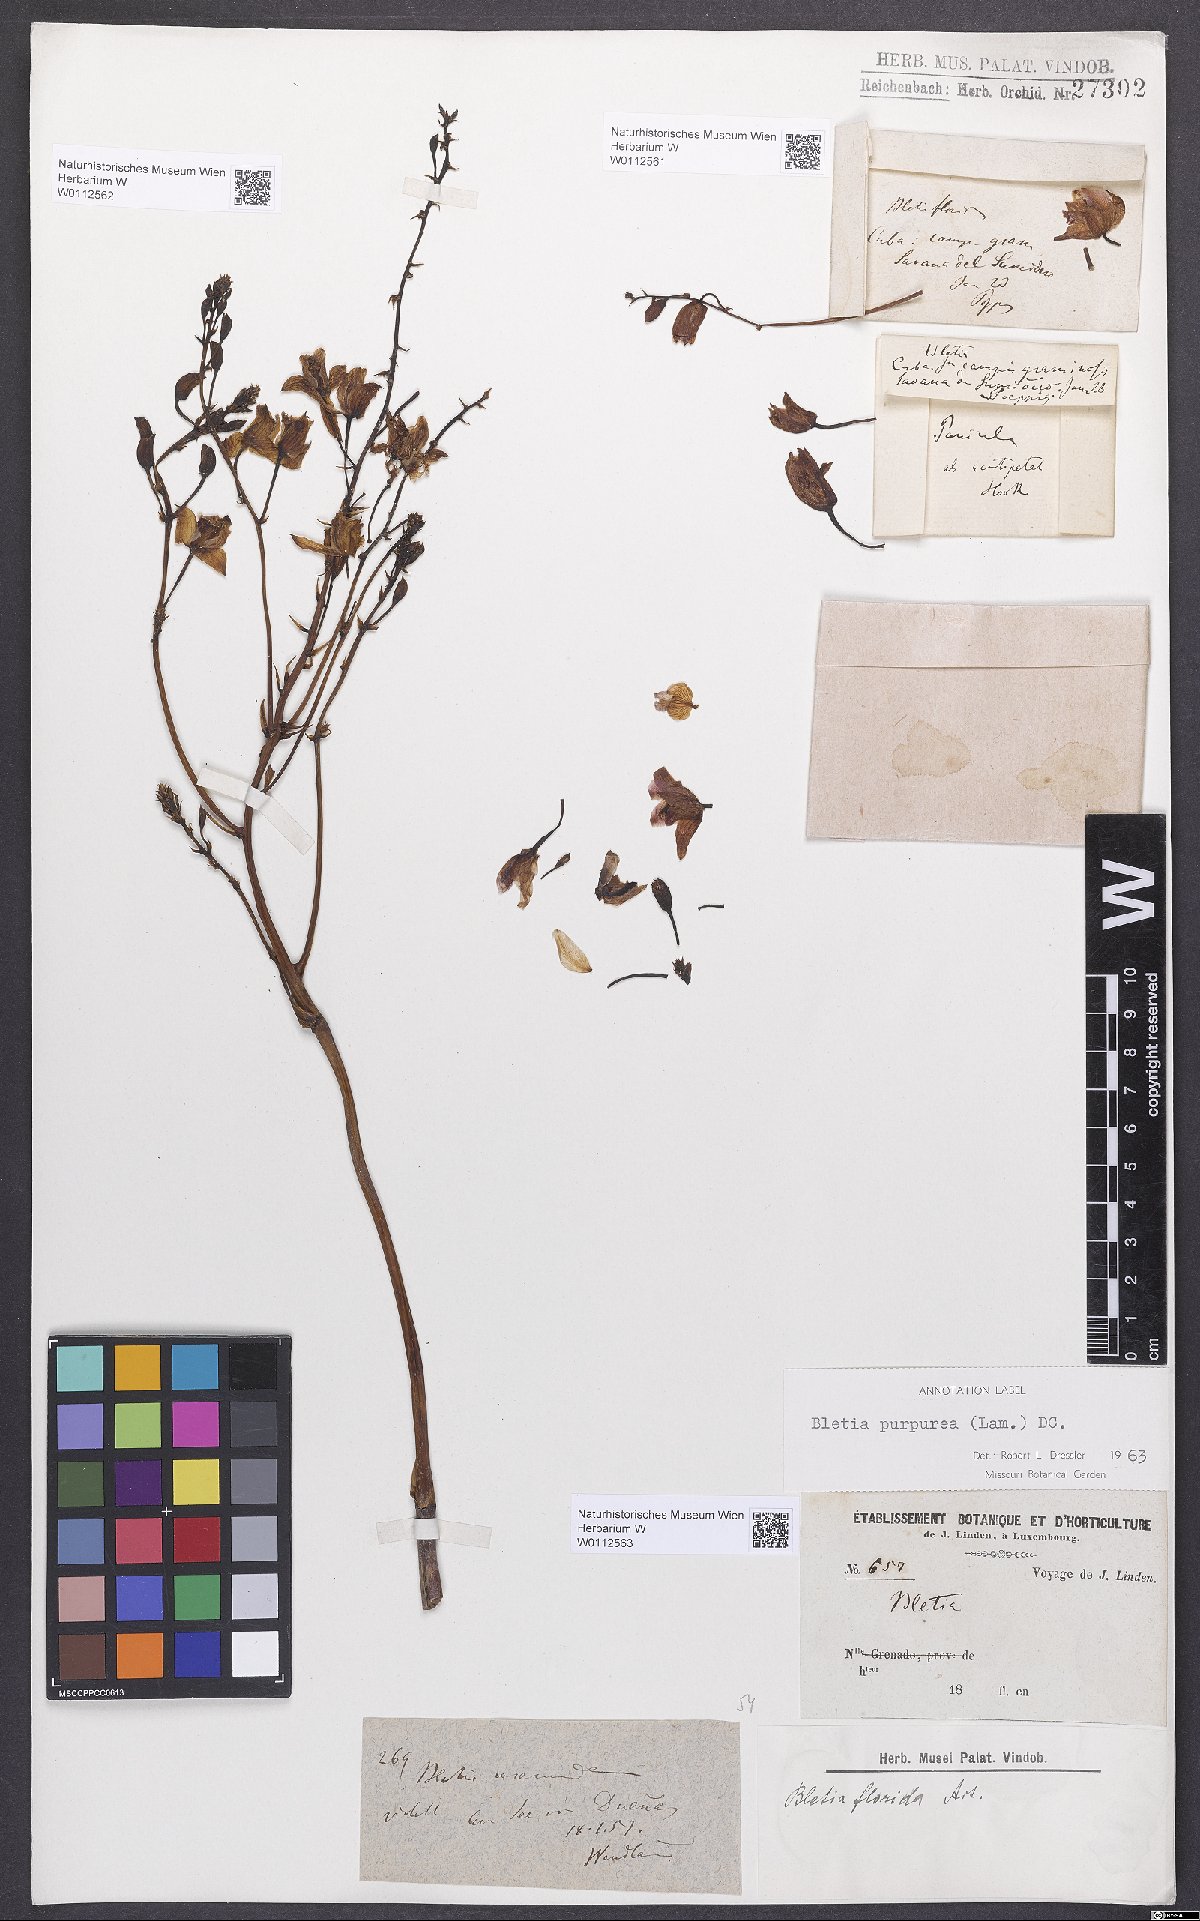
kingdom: Plantae
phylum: Tracheophyta
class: Liliopsida
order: Asparagales
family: Orchidaceae
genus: Bletia
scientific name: Bletia purpurea
